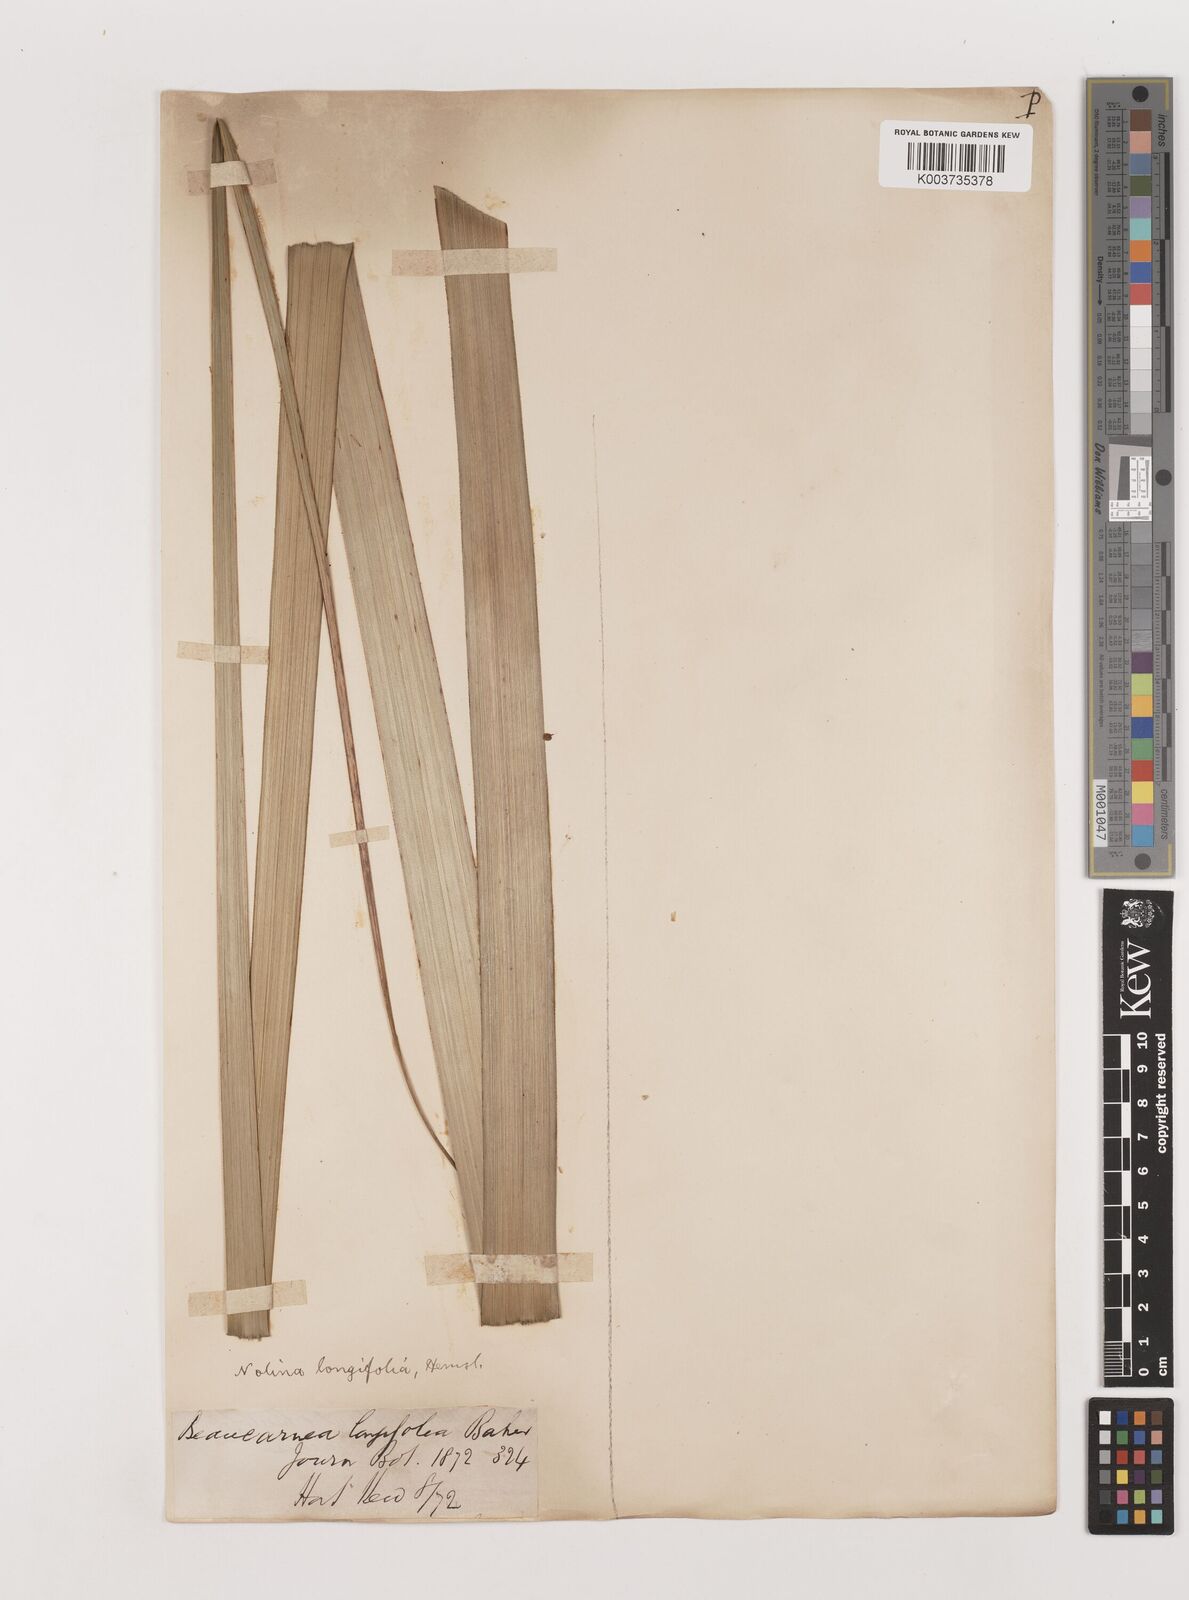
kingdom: Plantae
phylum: Tracheophyta
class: Liliopsida
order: Asparagales
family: Asparagaceae
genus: Nolina
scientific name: Nolina parviflora
